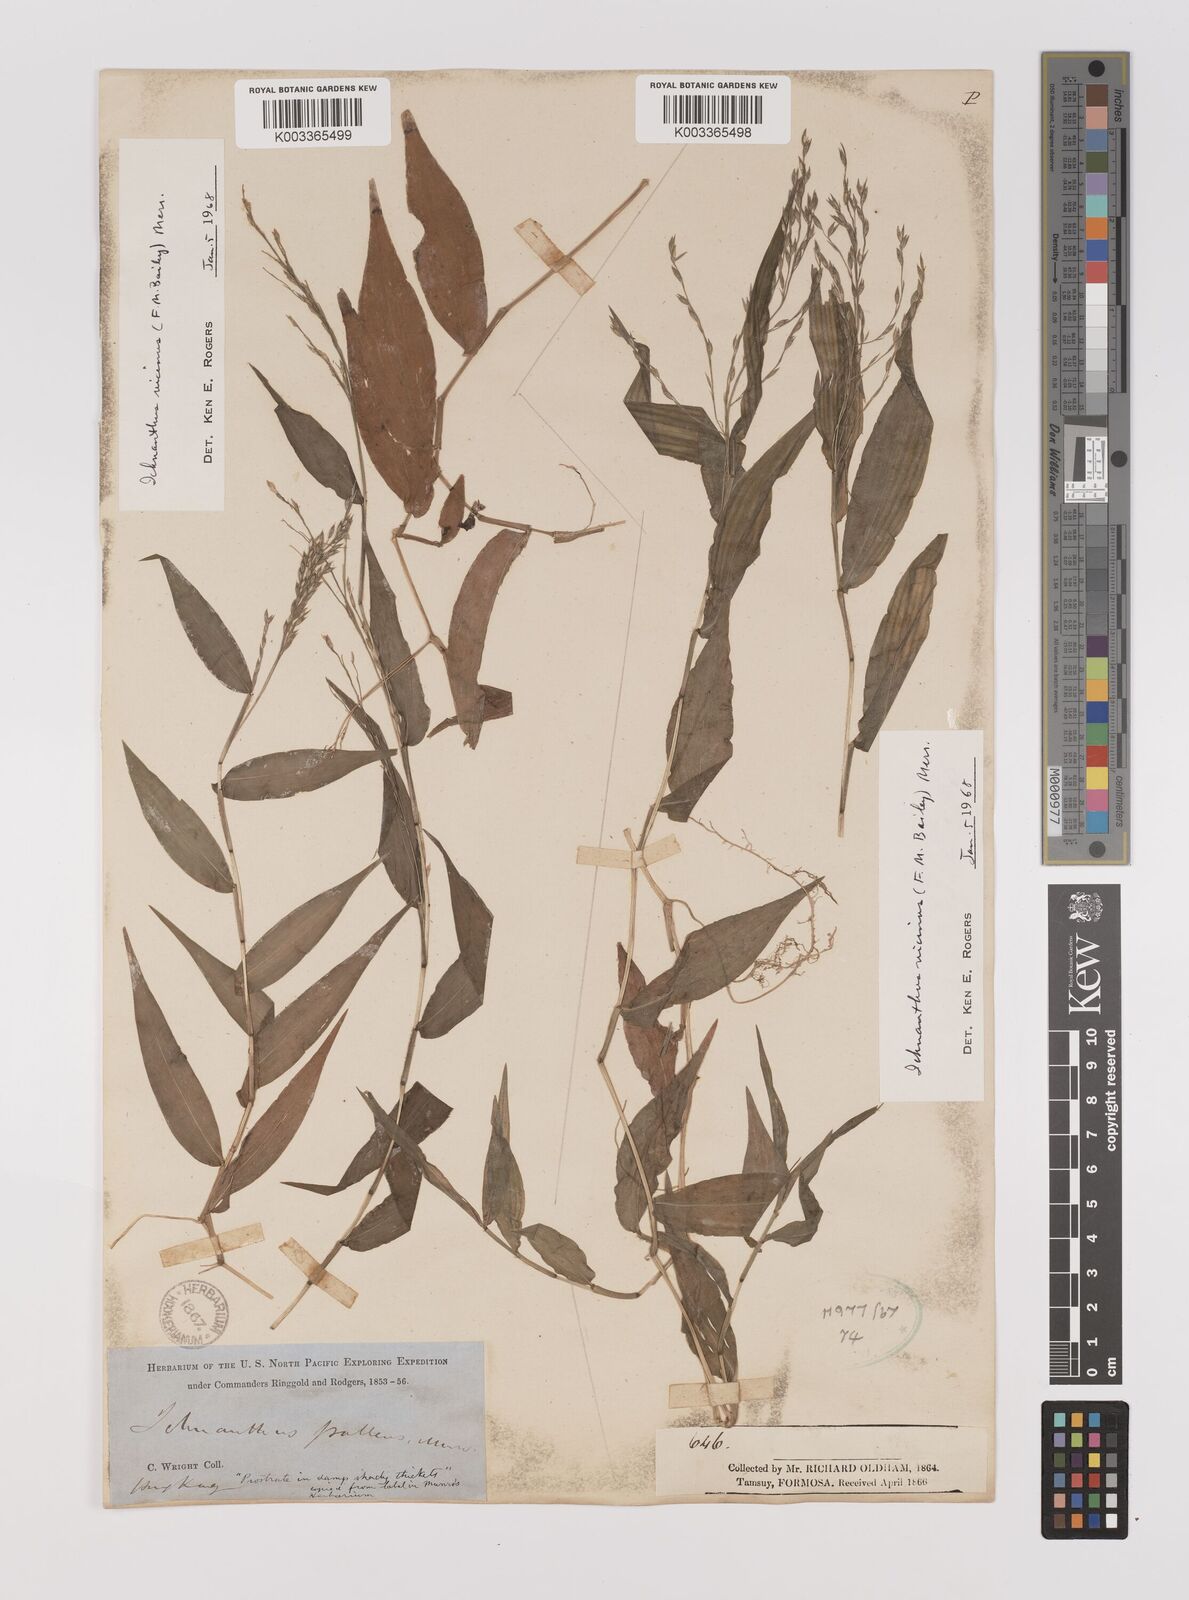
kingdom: Plantae
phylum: Tracheophyta
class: Liliopsida
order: Poales
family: Poaceae
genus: Ichnanthus
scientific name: Ichnanthus pallens
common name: Water grass
